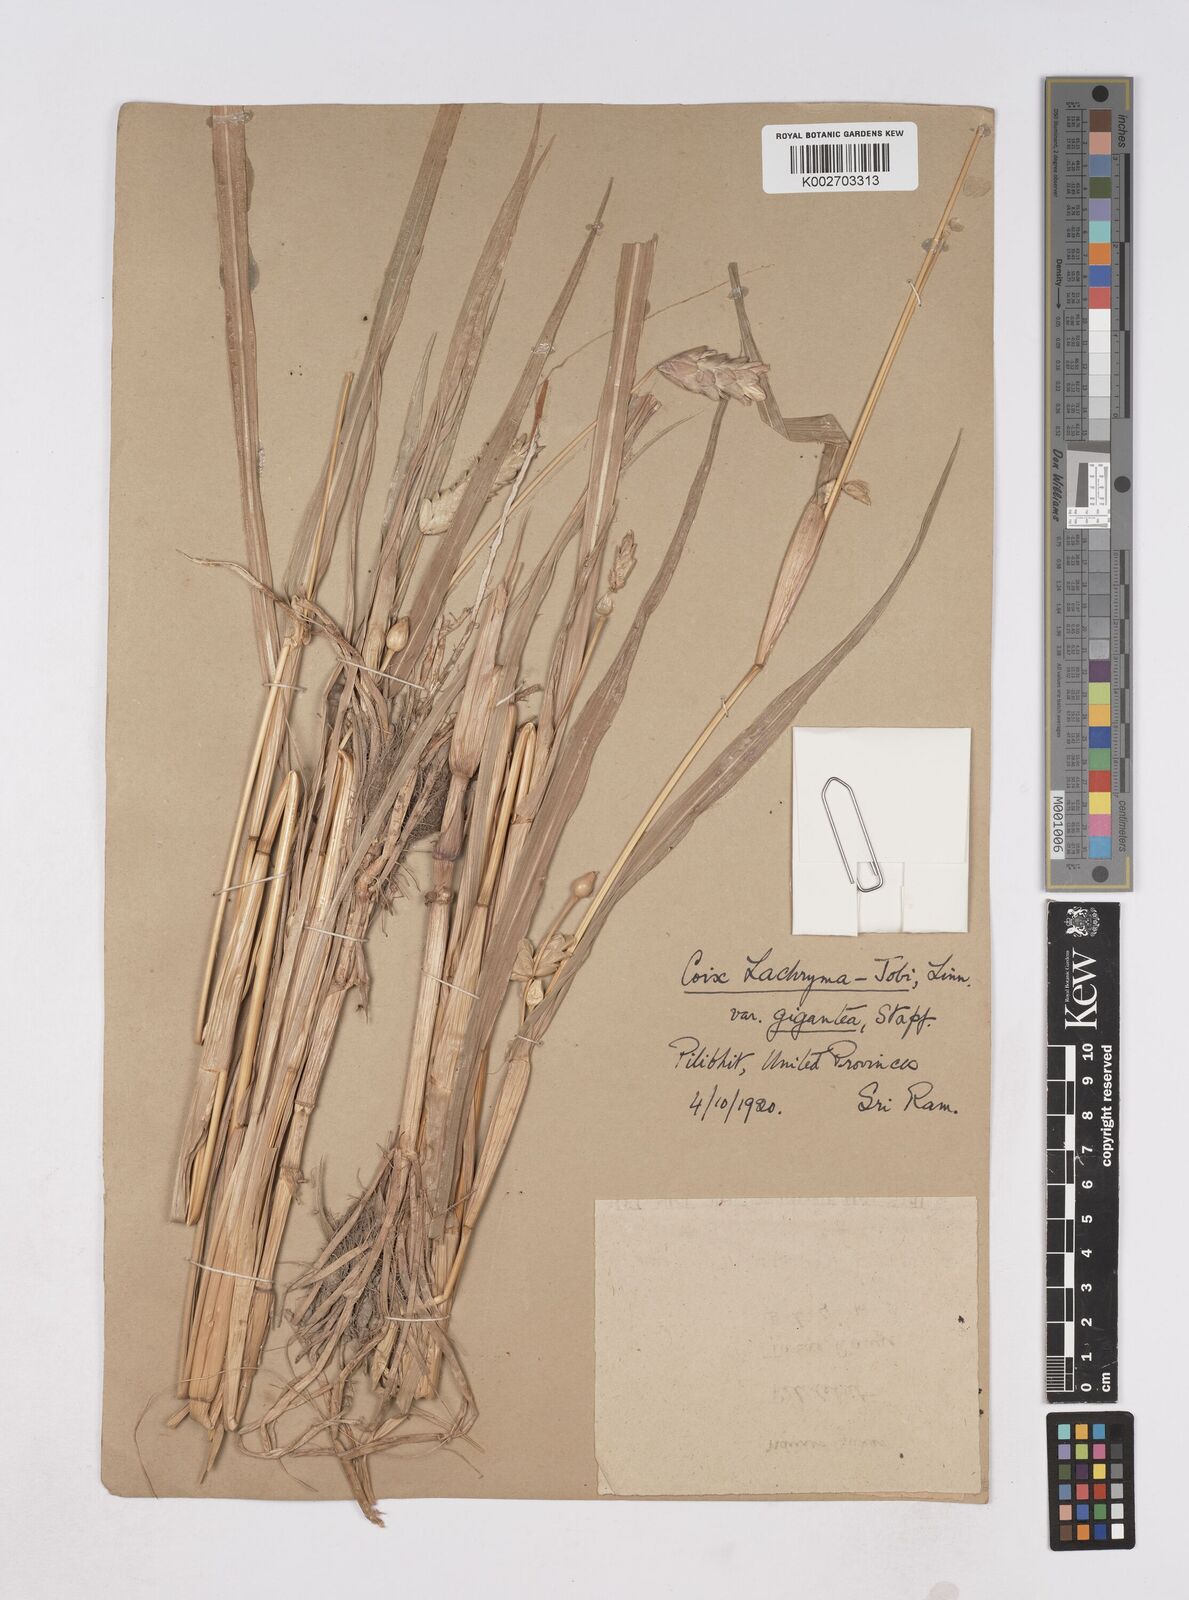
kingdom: Plantae
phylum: Tracheophyta
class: Liliopsida
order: Poales
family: Poaceae
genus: Coix
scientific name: Coix aquatica
